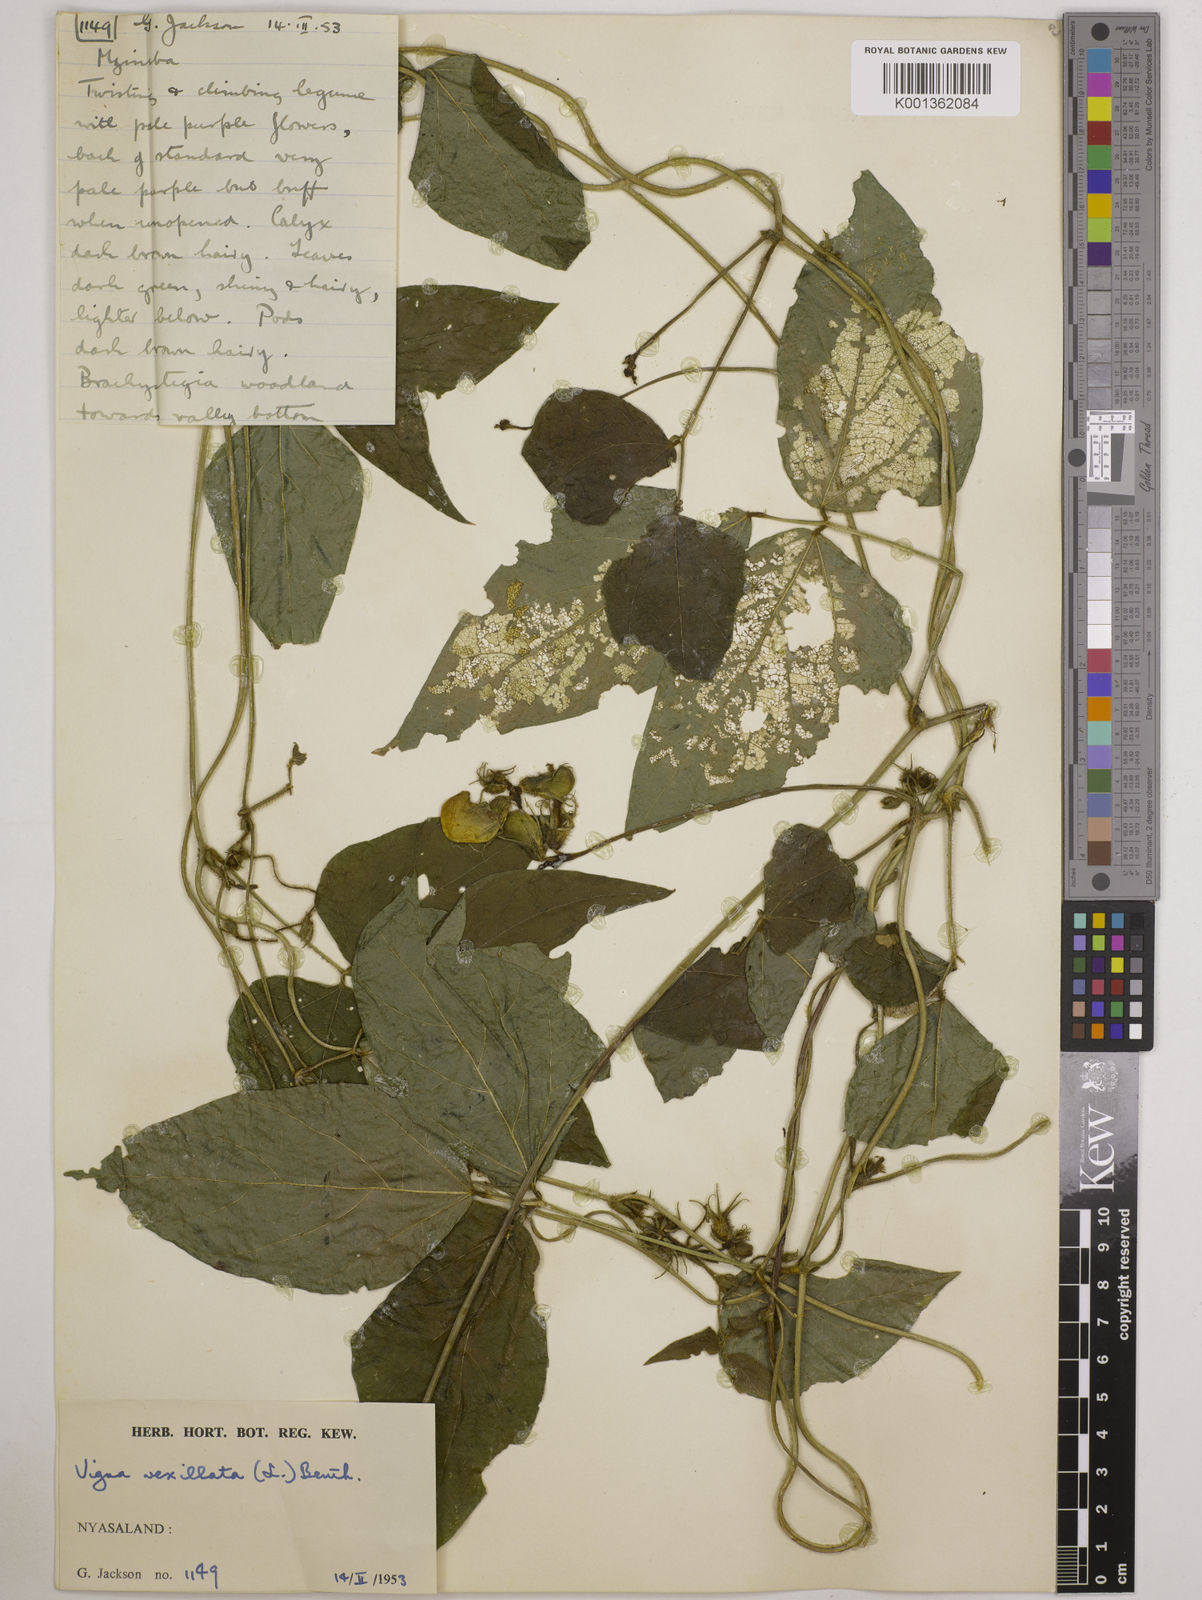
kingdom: Plantae
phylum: Tracheophyta
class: Magnoliopsida
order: Fabales
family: Fabaceae
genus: Vigna
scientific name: Vigna vexillata
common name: Zombi pea
